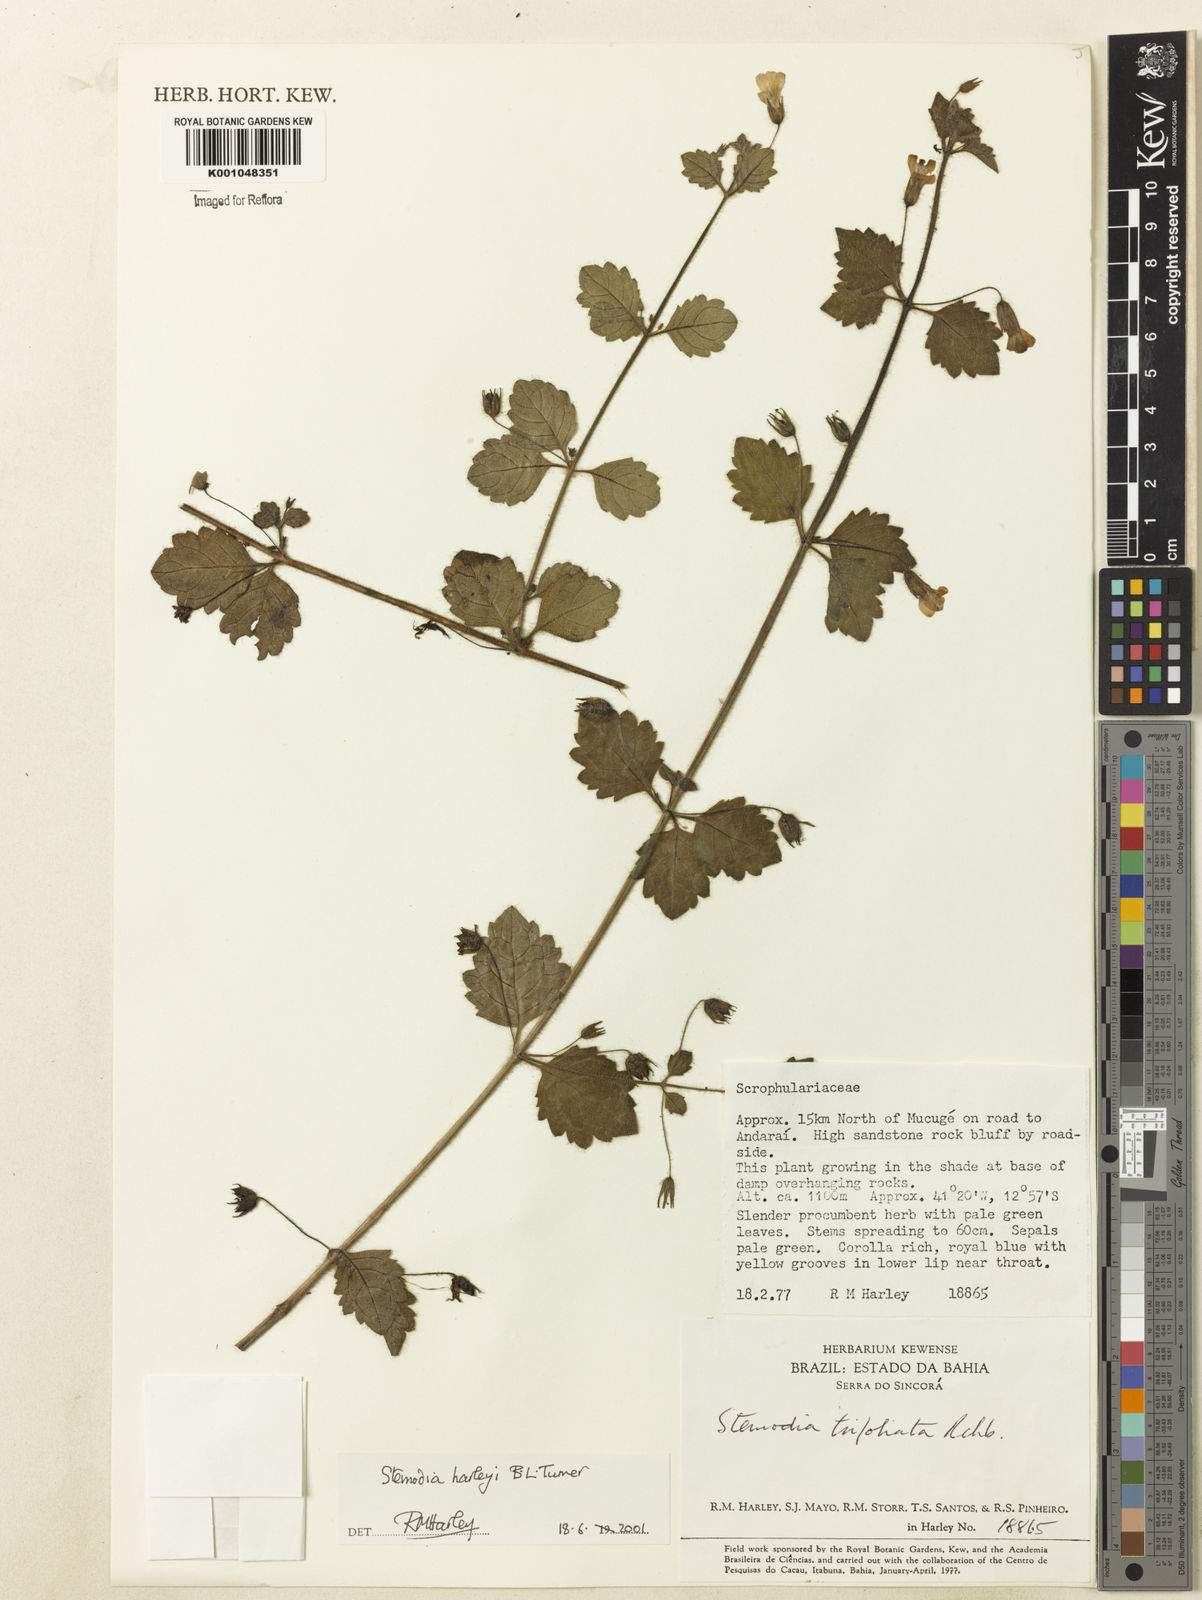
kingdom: Plantae
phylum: Tracheophyta
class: Magnoliopsida
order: Lamiales
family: Plantaginaceae
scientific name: Plantaginaceae
